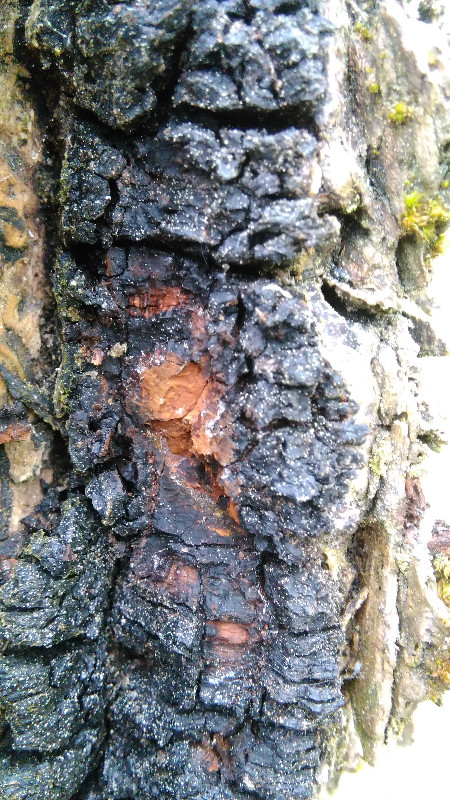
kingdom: Fungi
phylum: Basidiomycota
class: Agaricomycetes
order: Hymenochaetales
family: Hymenochaetaceae
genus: Inonotus
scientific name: Inonotus obliquus
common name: birke-spejlporesvamp
